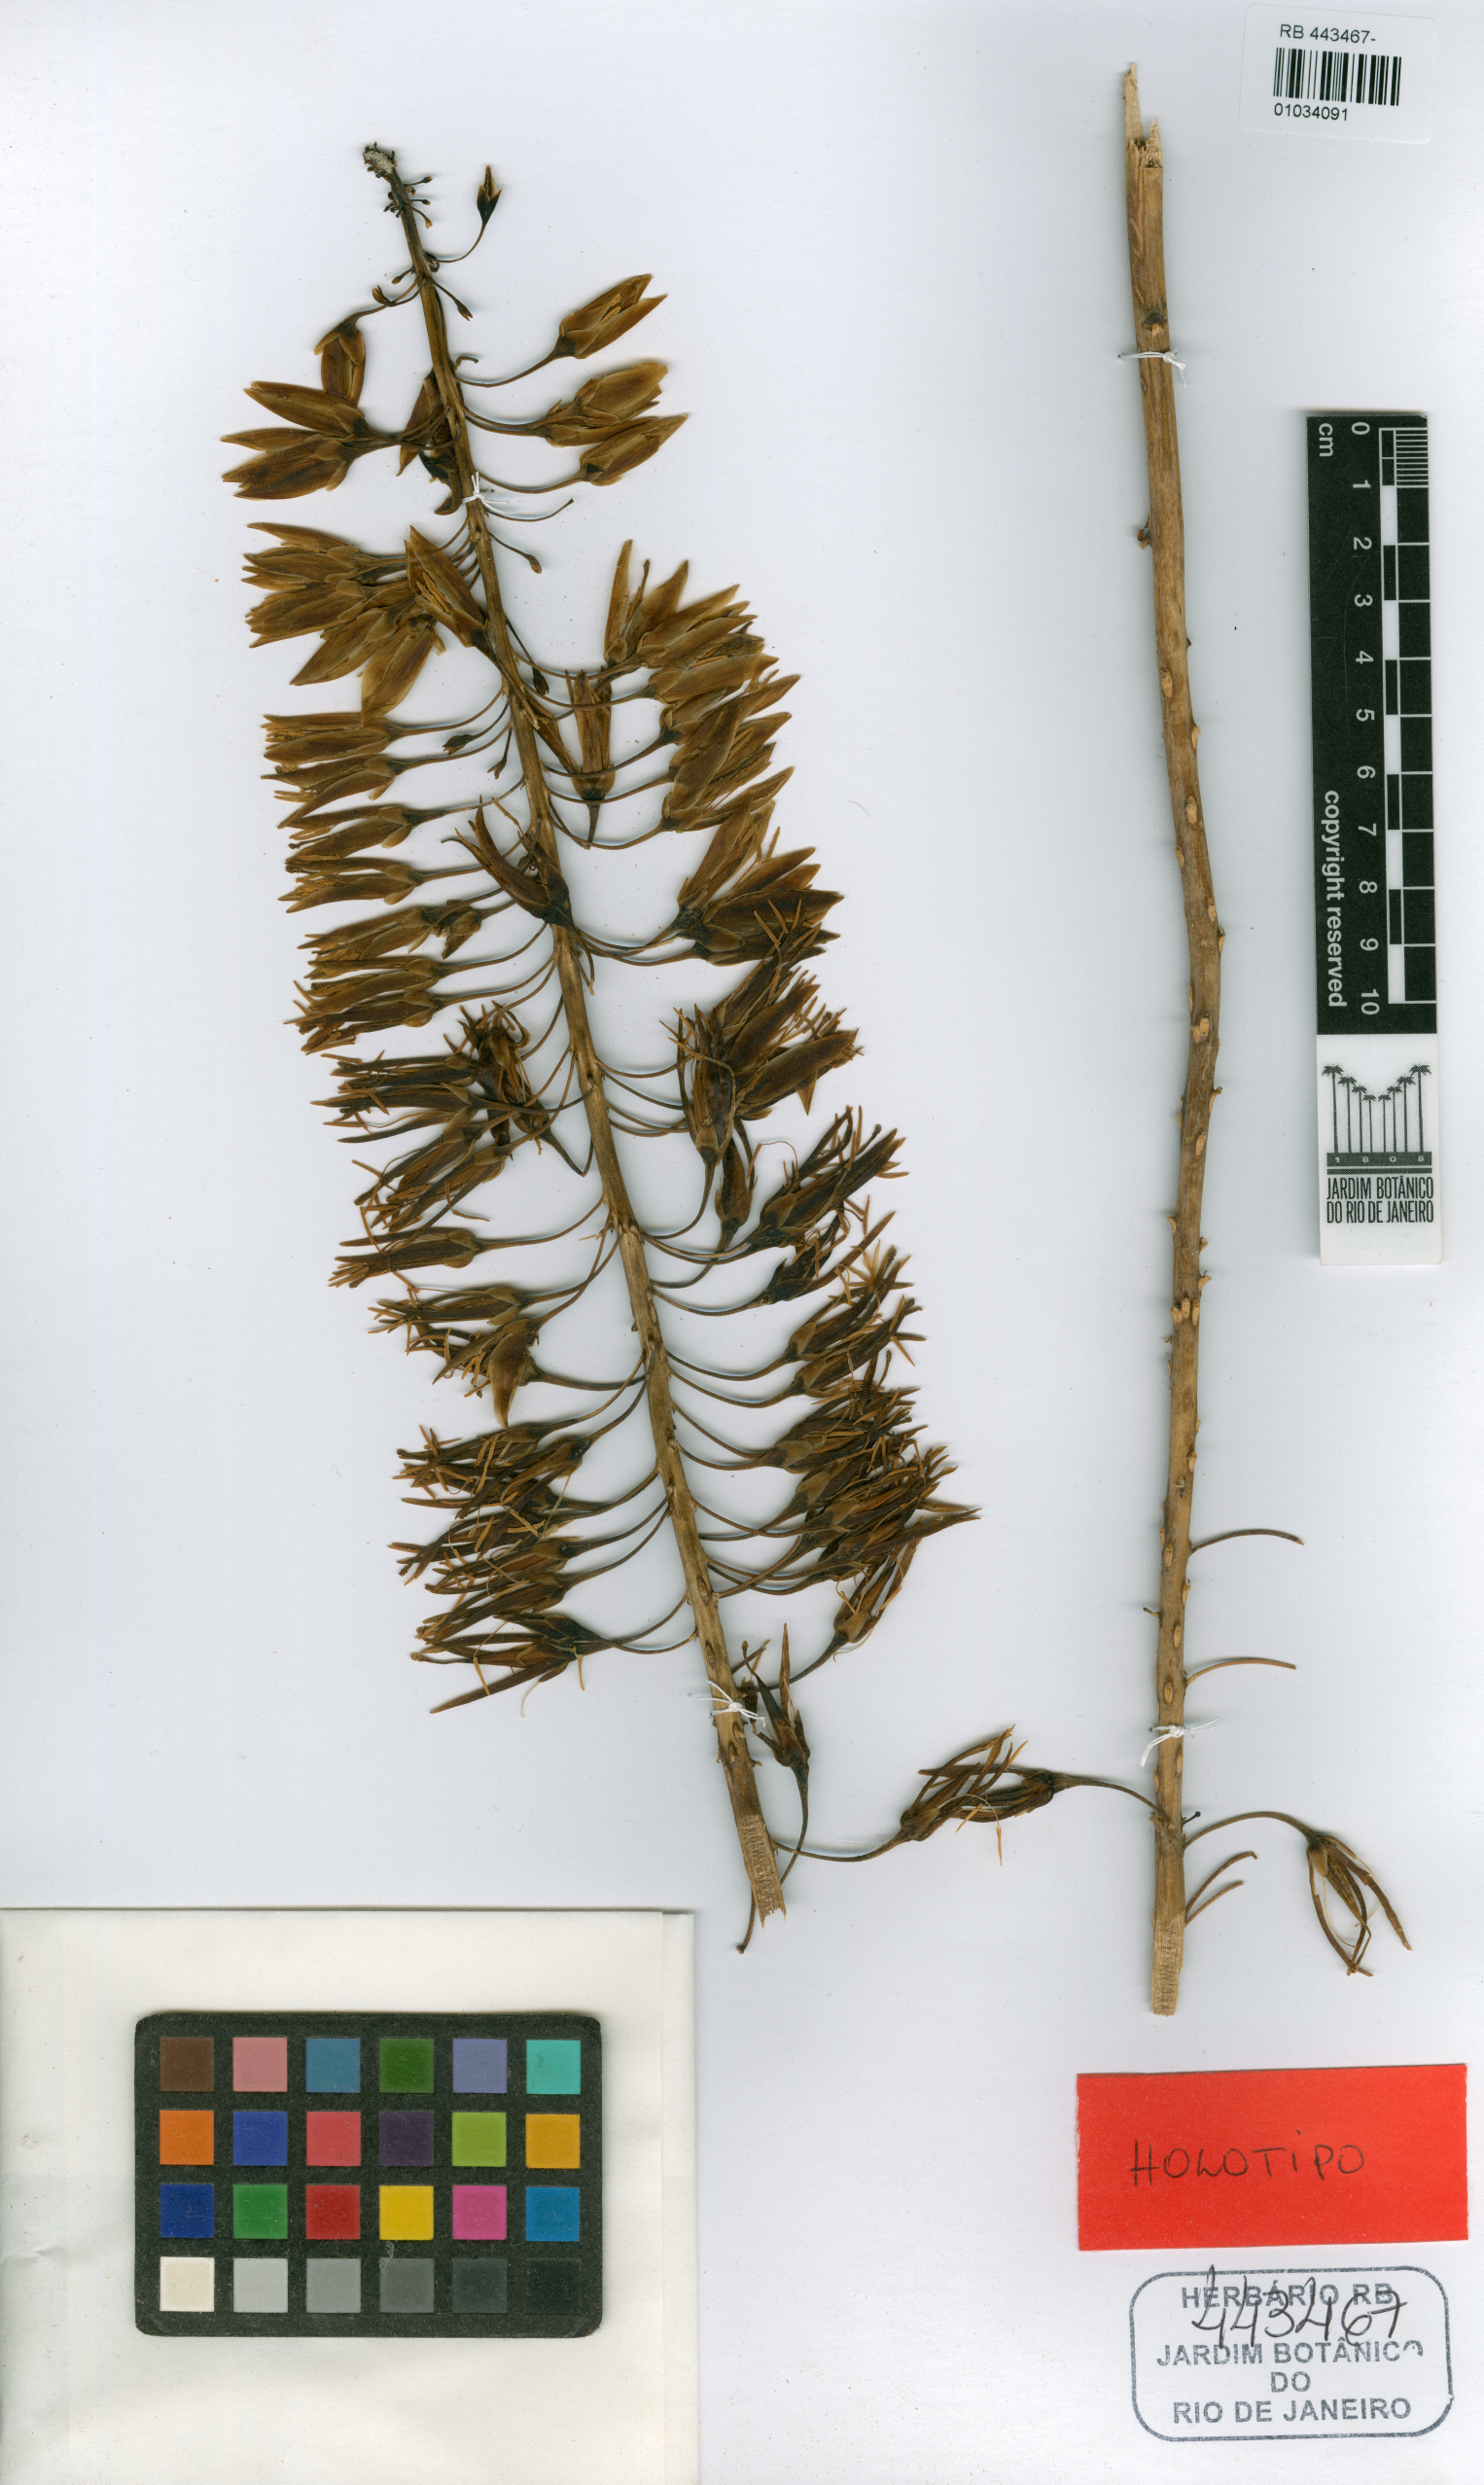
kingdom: Plantae
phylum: Tracheophyta
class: Liliopsida
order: Poales
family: Bromeliaceae
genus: Dyckia
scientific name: Dyckia viridiflora
